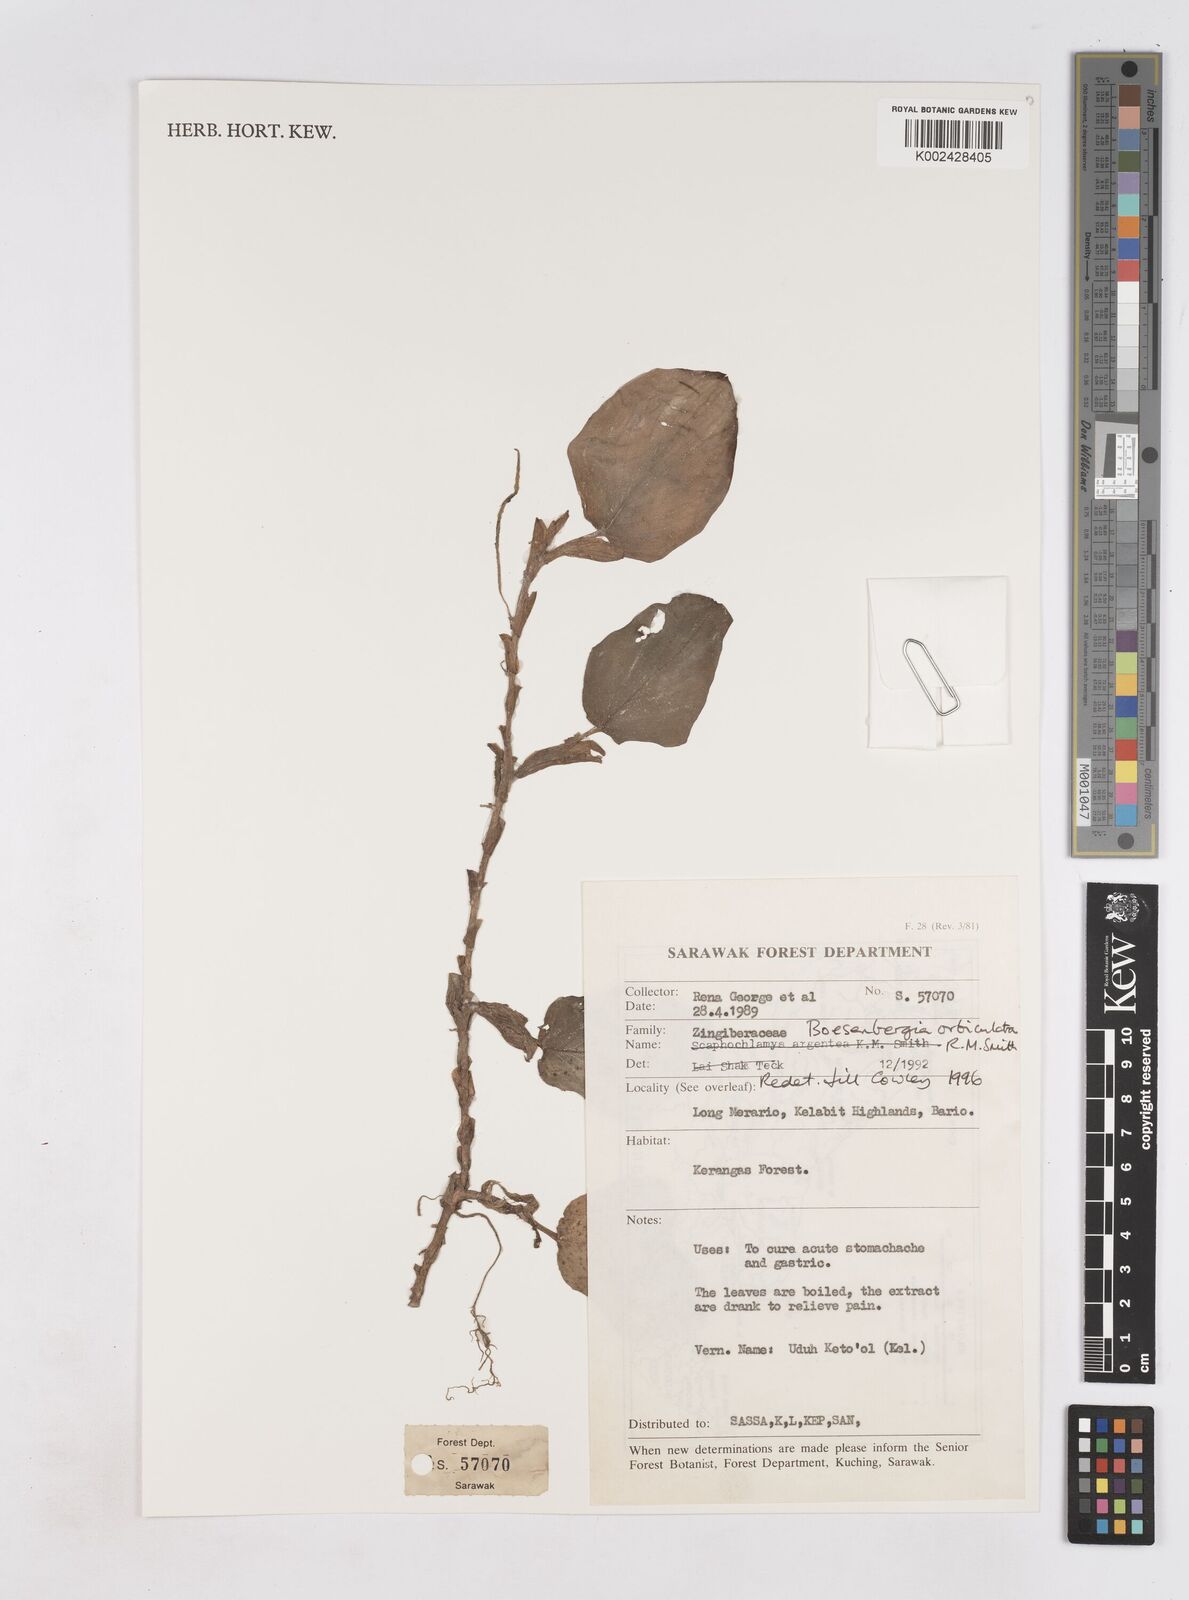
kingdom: Plantae
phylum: Tracheophyta
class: Liliopsida
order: Zingiberales
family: Zingiberaceae
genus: Boesenbergia
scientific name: Boesenbergia orbiculata
